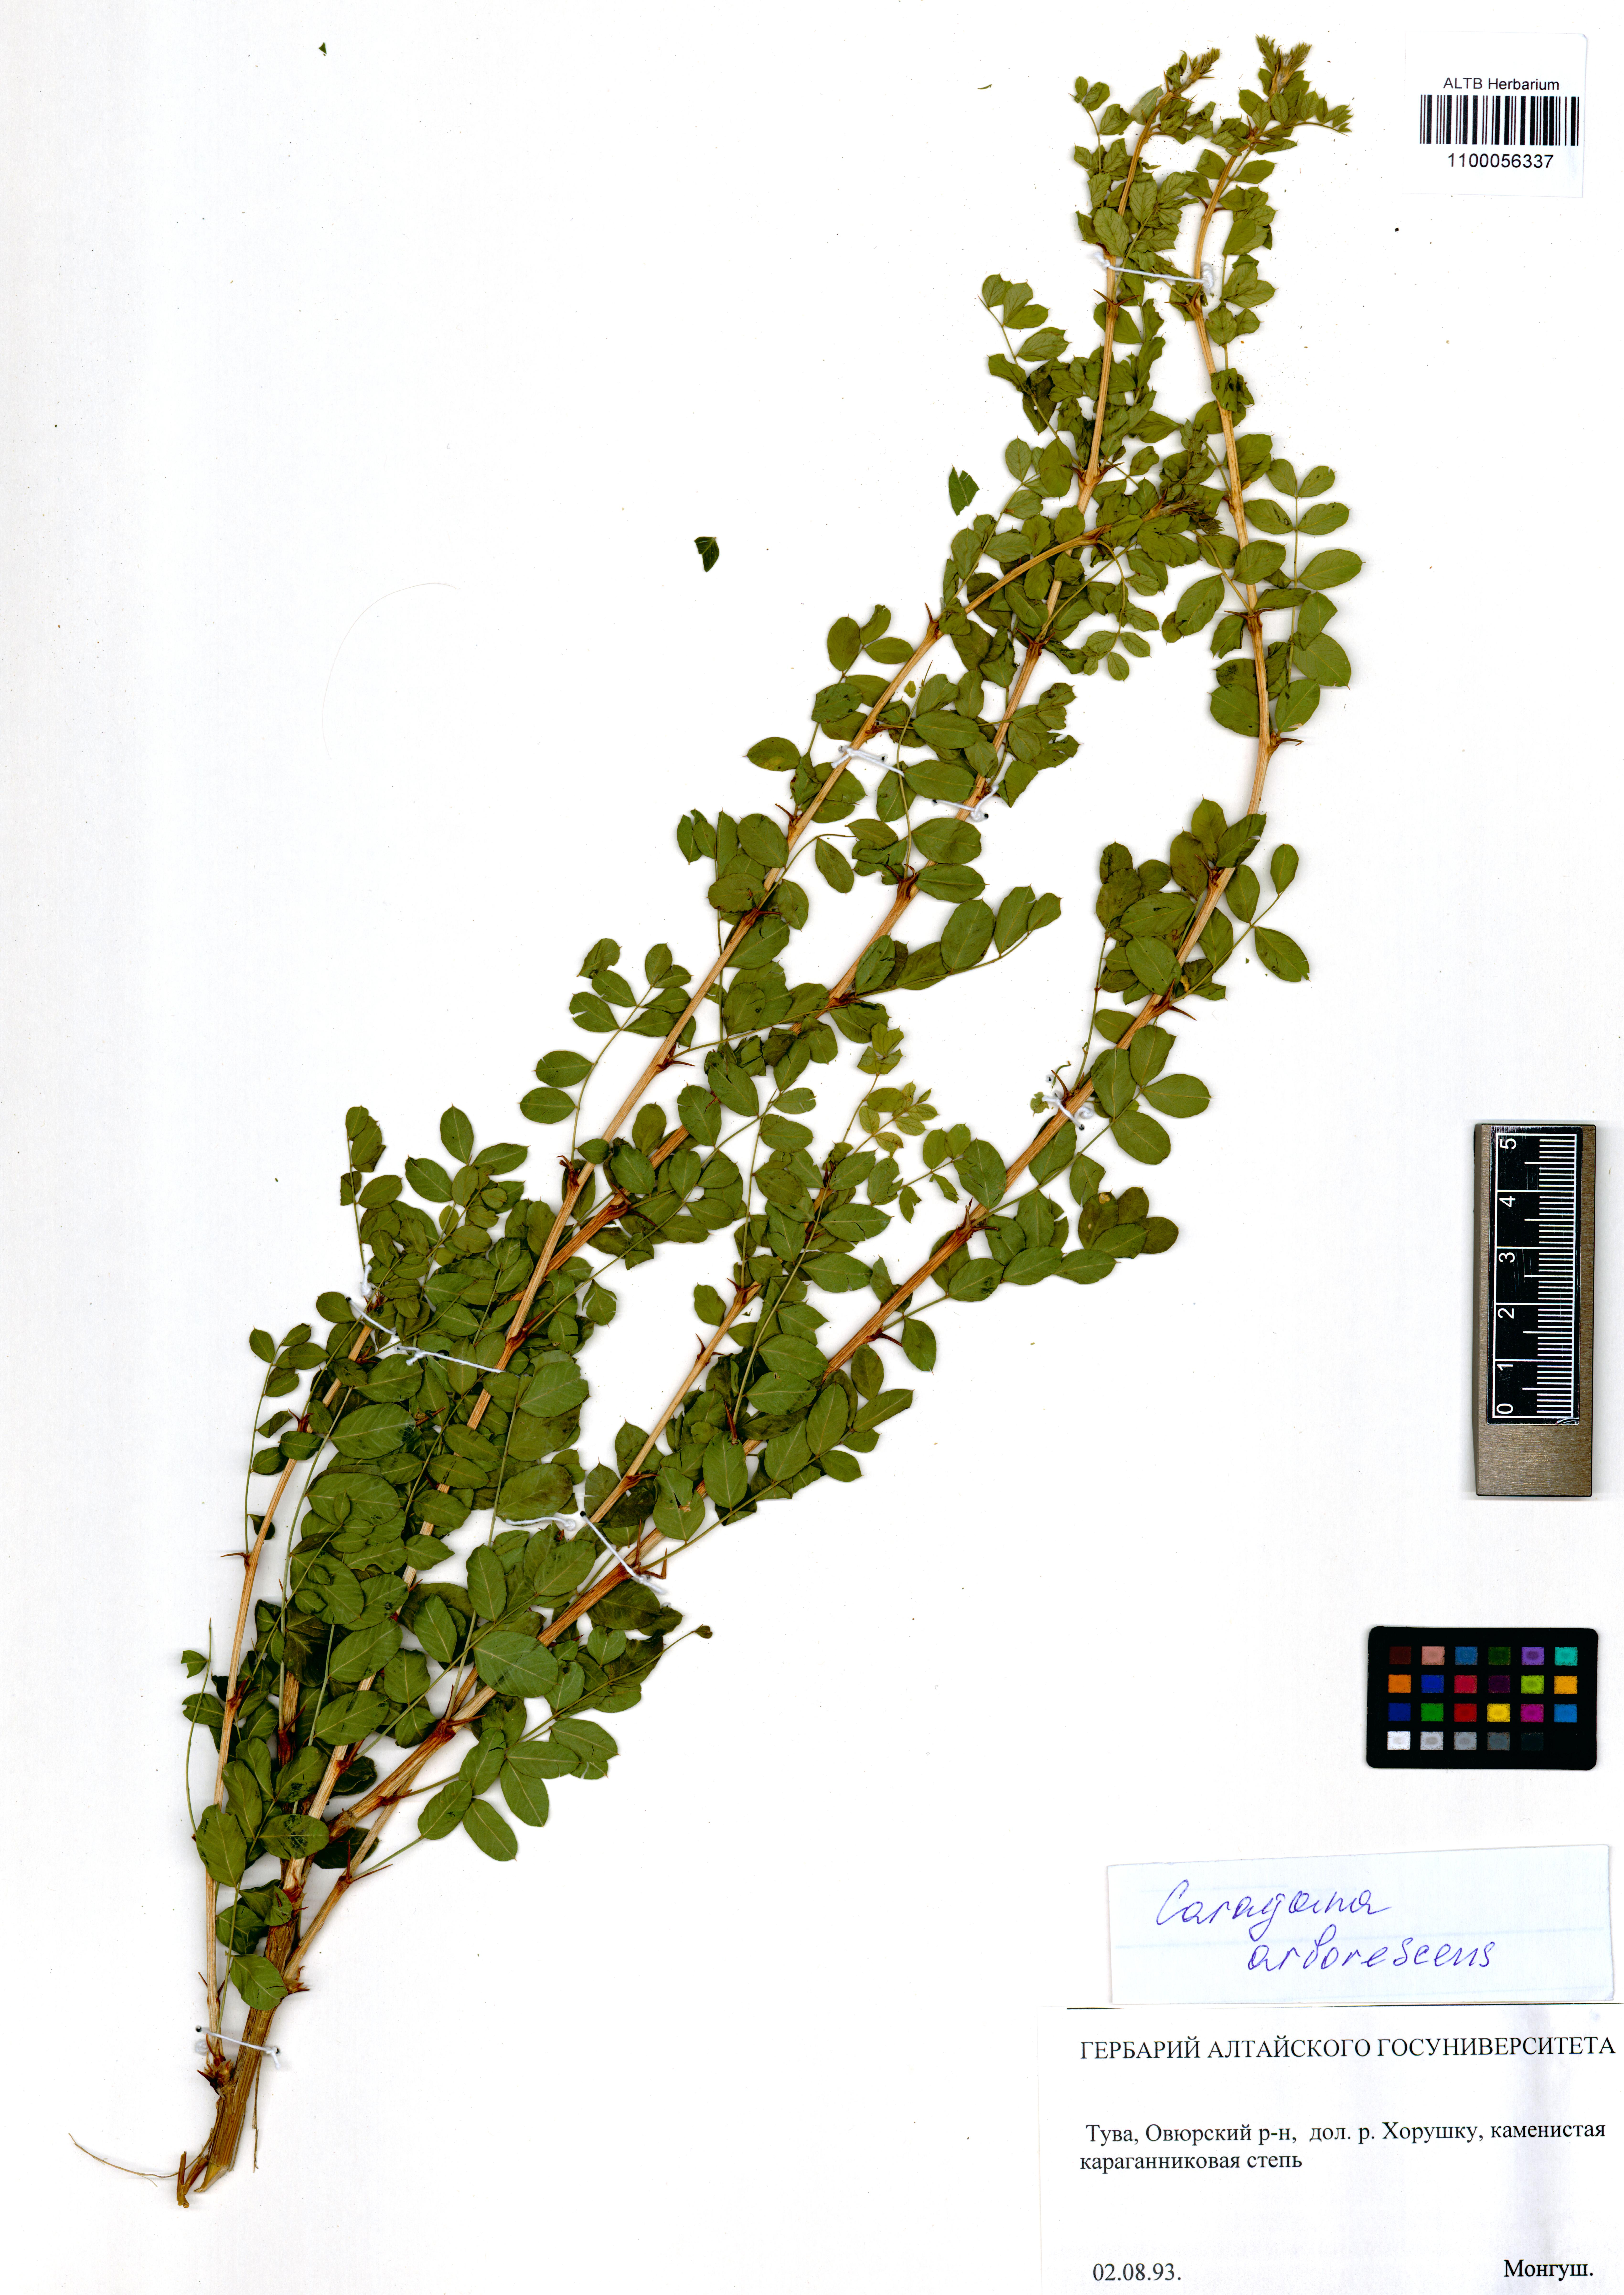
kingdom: Plantae
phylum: Tracheophyta
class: Magnoliopsida
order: Fabales
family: Fabaceae
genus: Caragana
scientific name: Caragana arborescens
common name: Siberian peashrub
